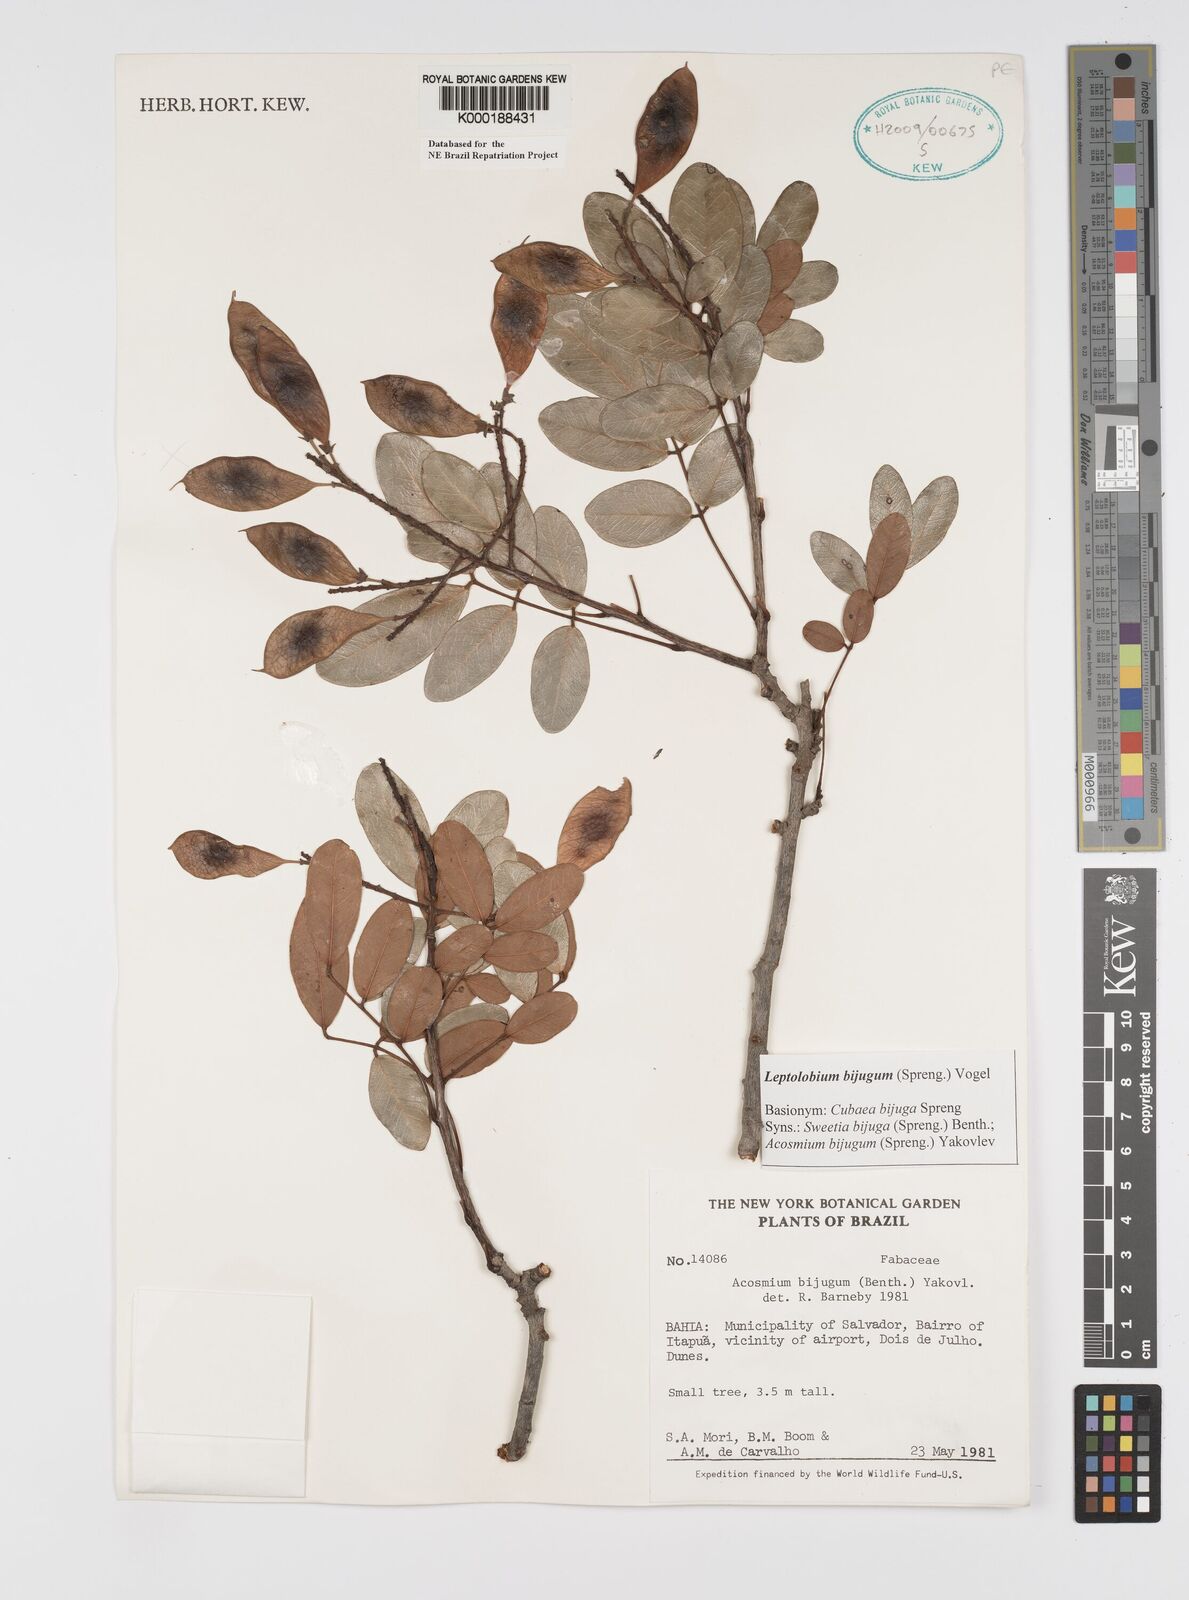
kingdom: Plantae
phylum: Tracheophyta
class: Magnoliopsida
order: Fabales
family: Fabaceae
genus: Leptolobium
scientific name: Leptolobium bijugum
